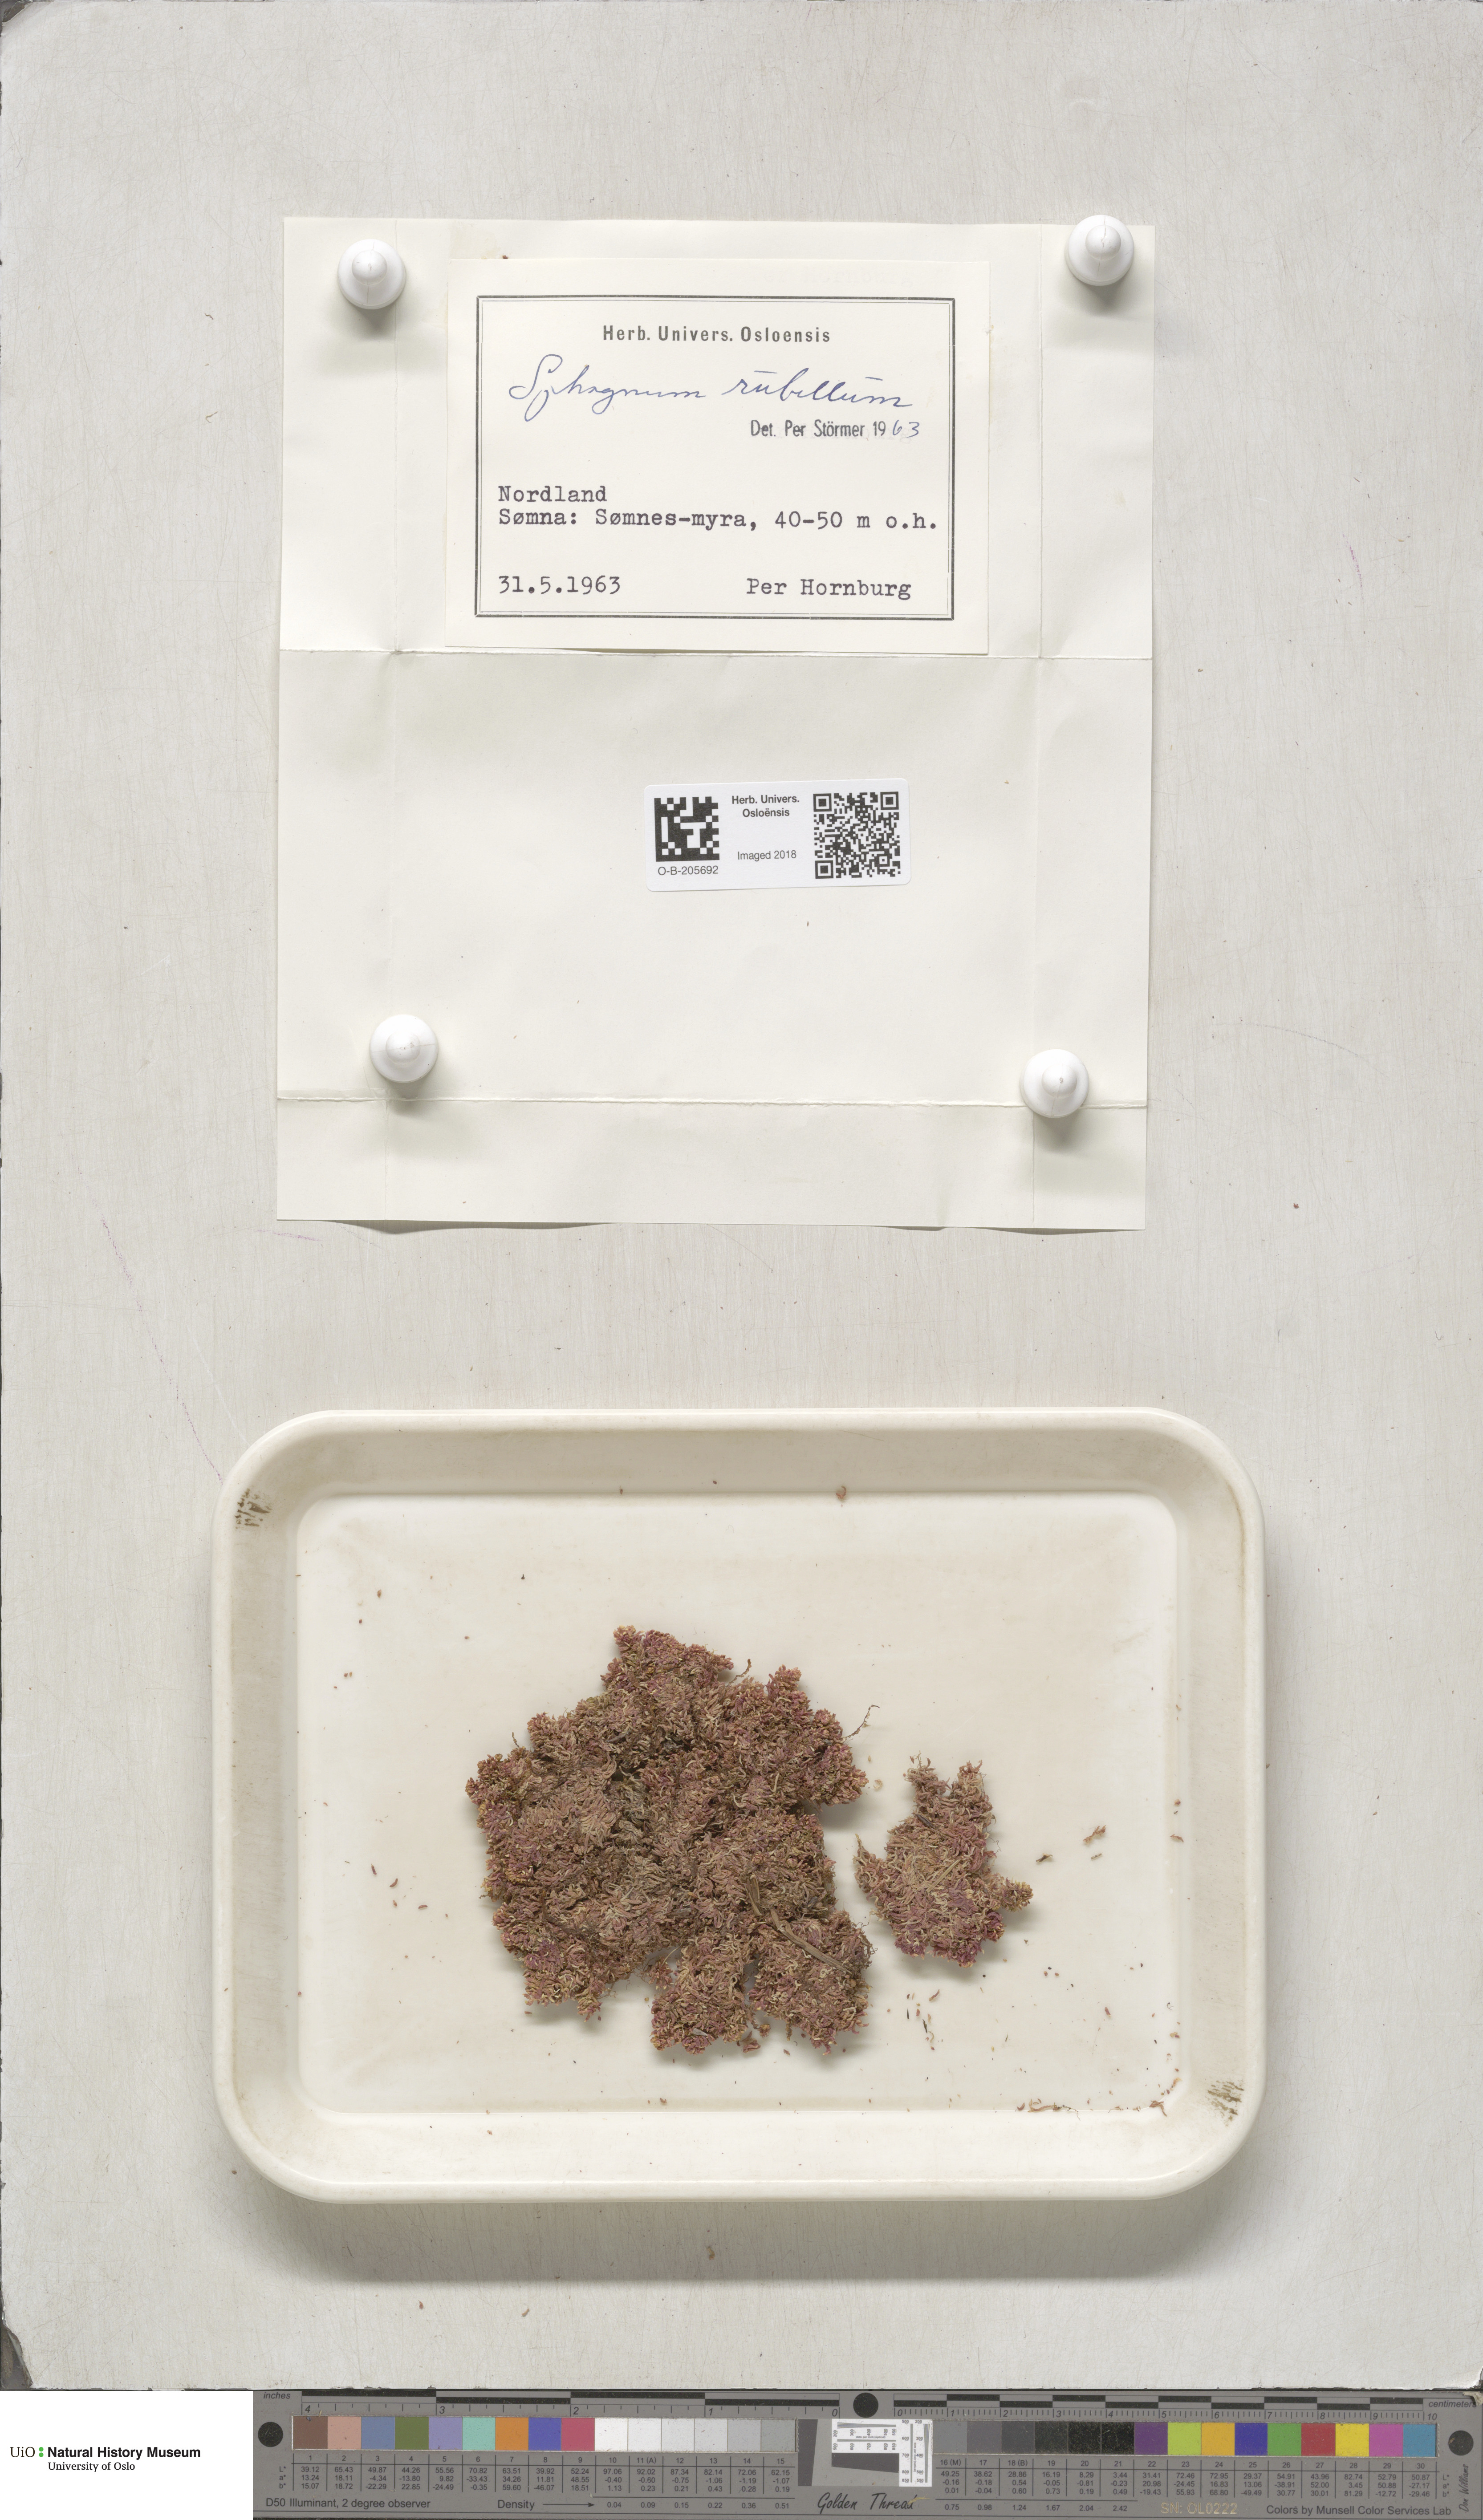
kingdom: Plantae
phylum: Bryophyta
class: Sphagnopsida
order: Sphagnales
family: Sphagnaceae
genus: Sphagnum
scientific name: Sphagnum rubellum
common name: Red peat moss
